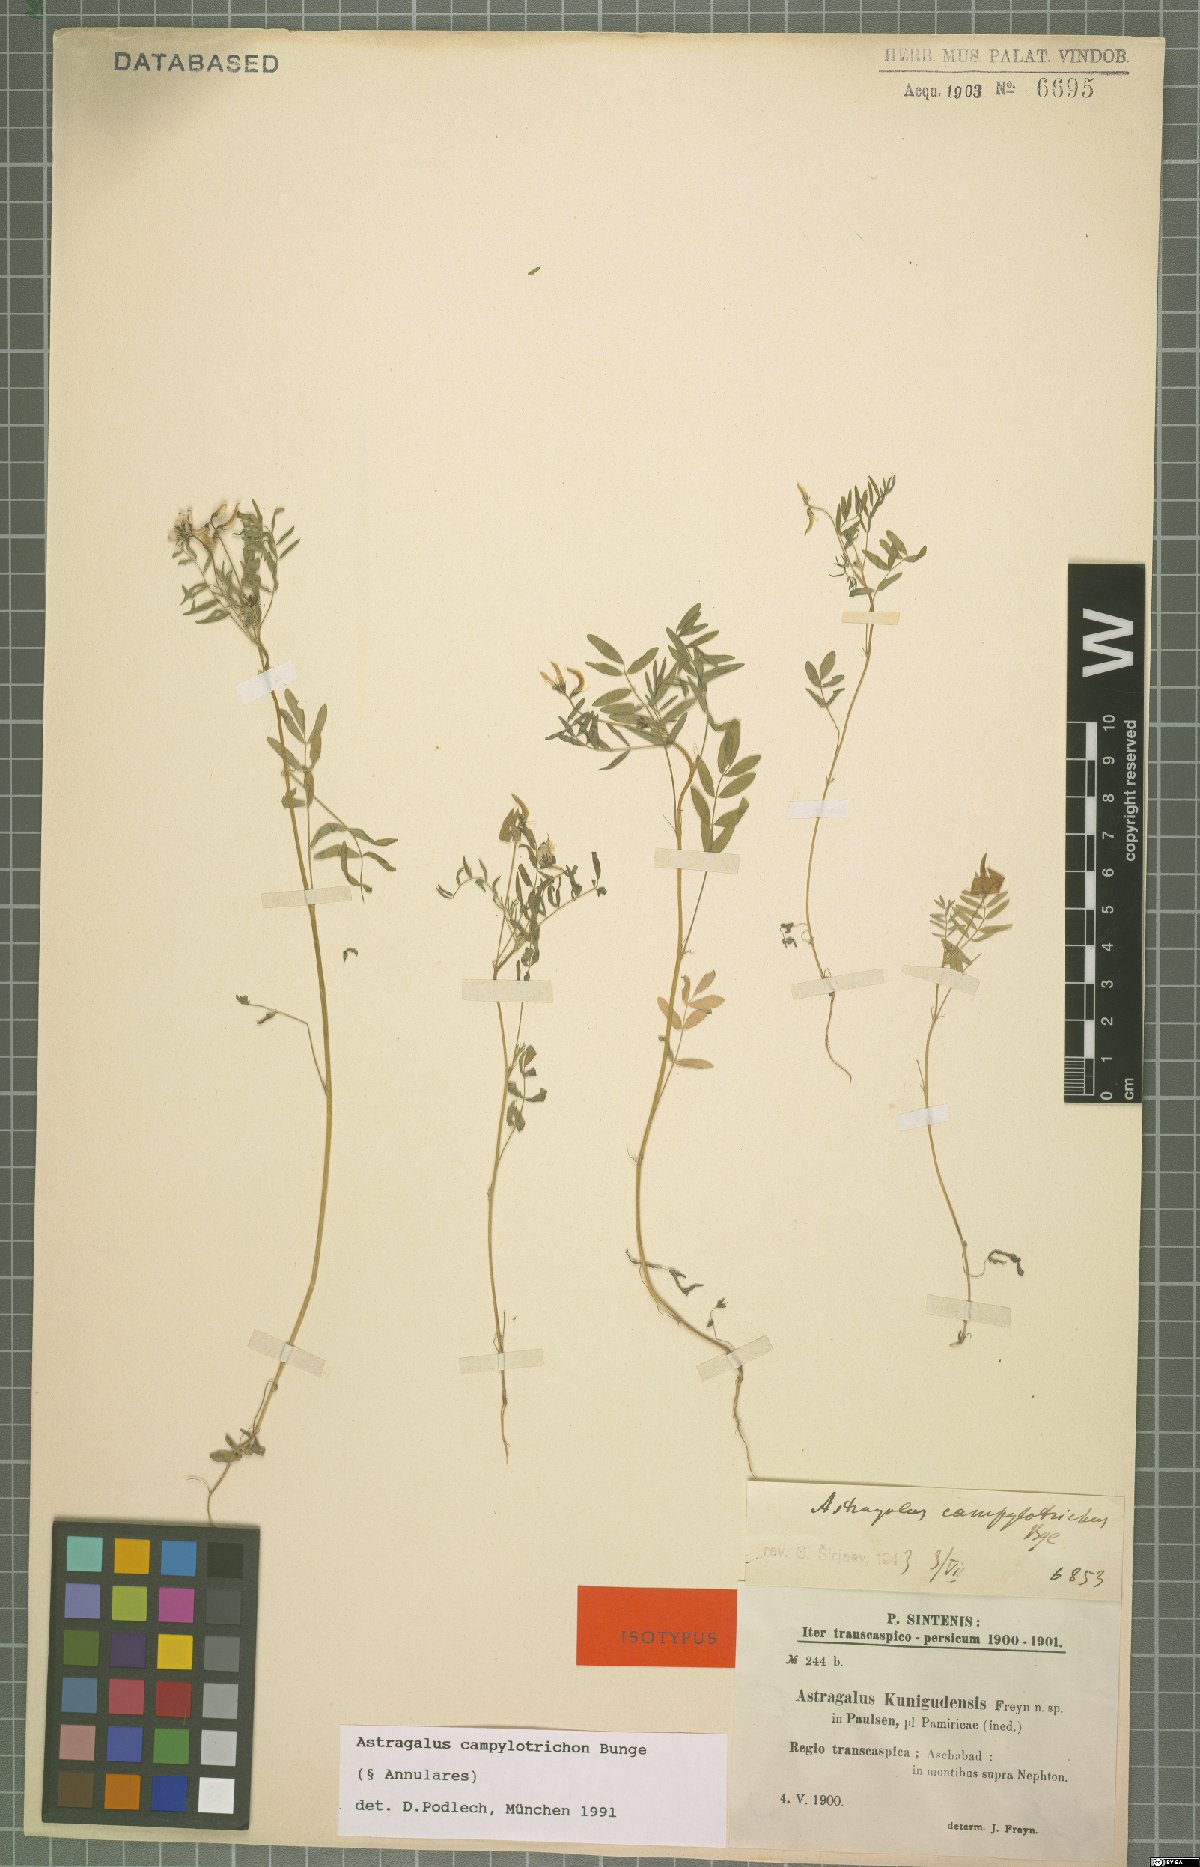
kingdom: Plantae
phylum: Tracheophyta
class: Magnoliopsida
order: Fabales
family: Fabaceae
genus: Astragalus
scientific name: Astragalus campylotrichus
